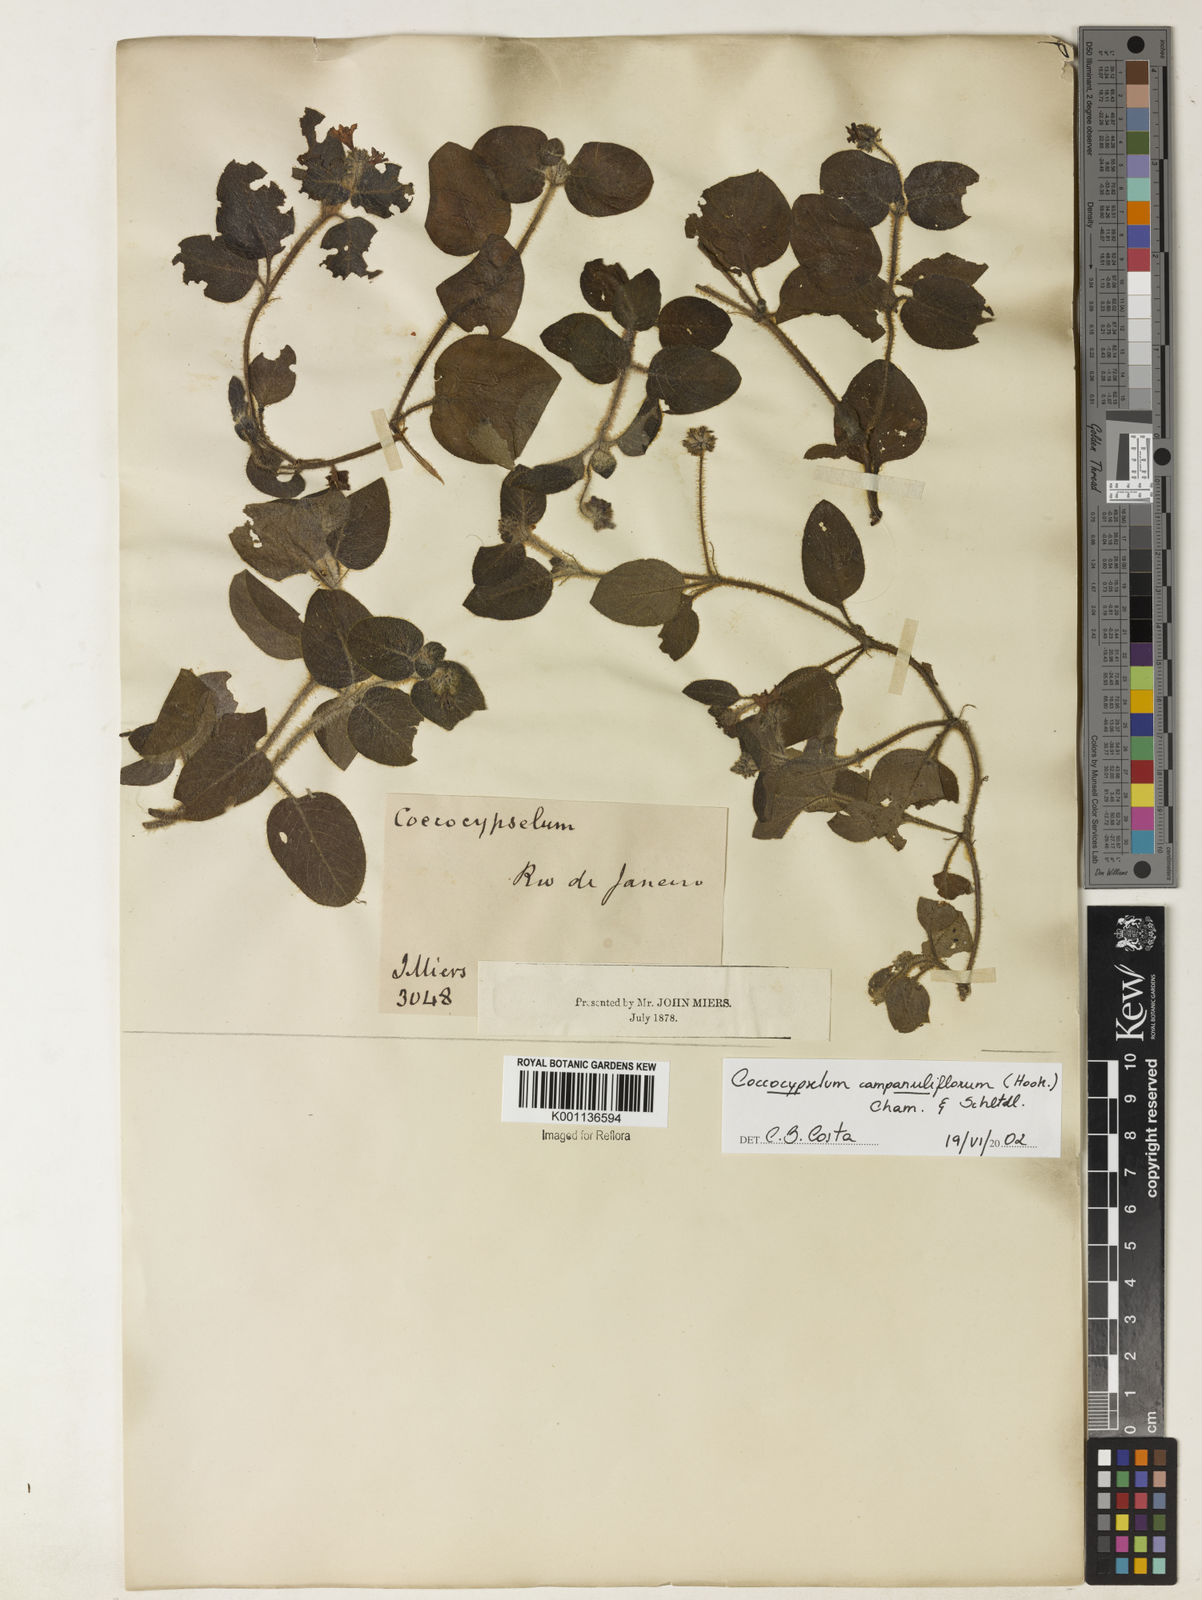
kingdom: Plantae
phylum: Tracheophyta
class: Magnoliopsida
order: Gentianales
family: Rubiaceae
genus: Coccocypselum
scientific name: Coccocypselum capitatum
